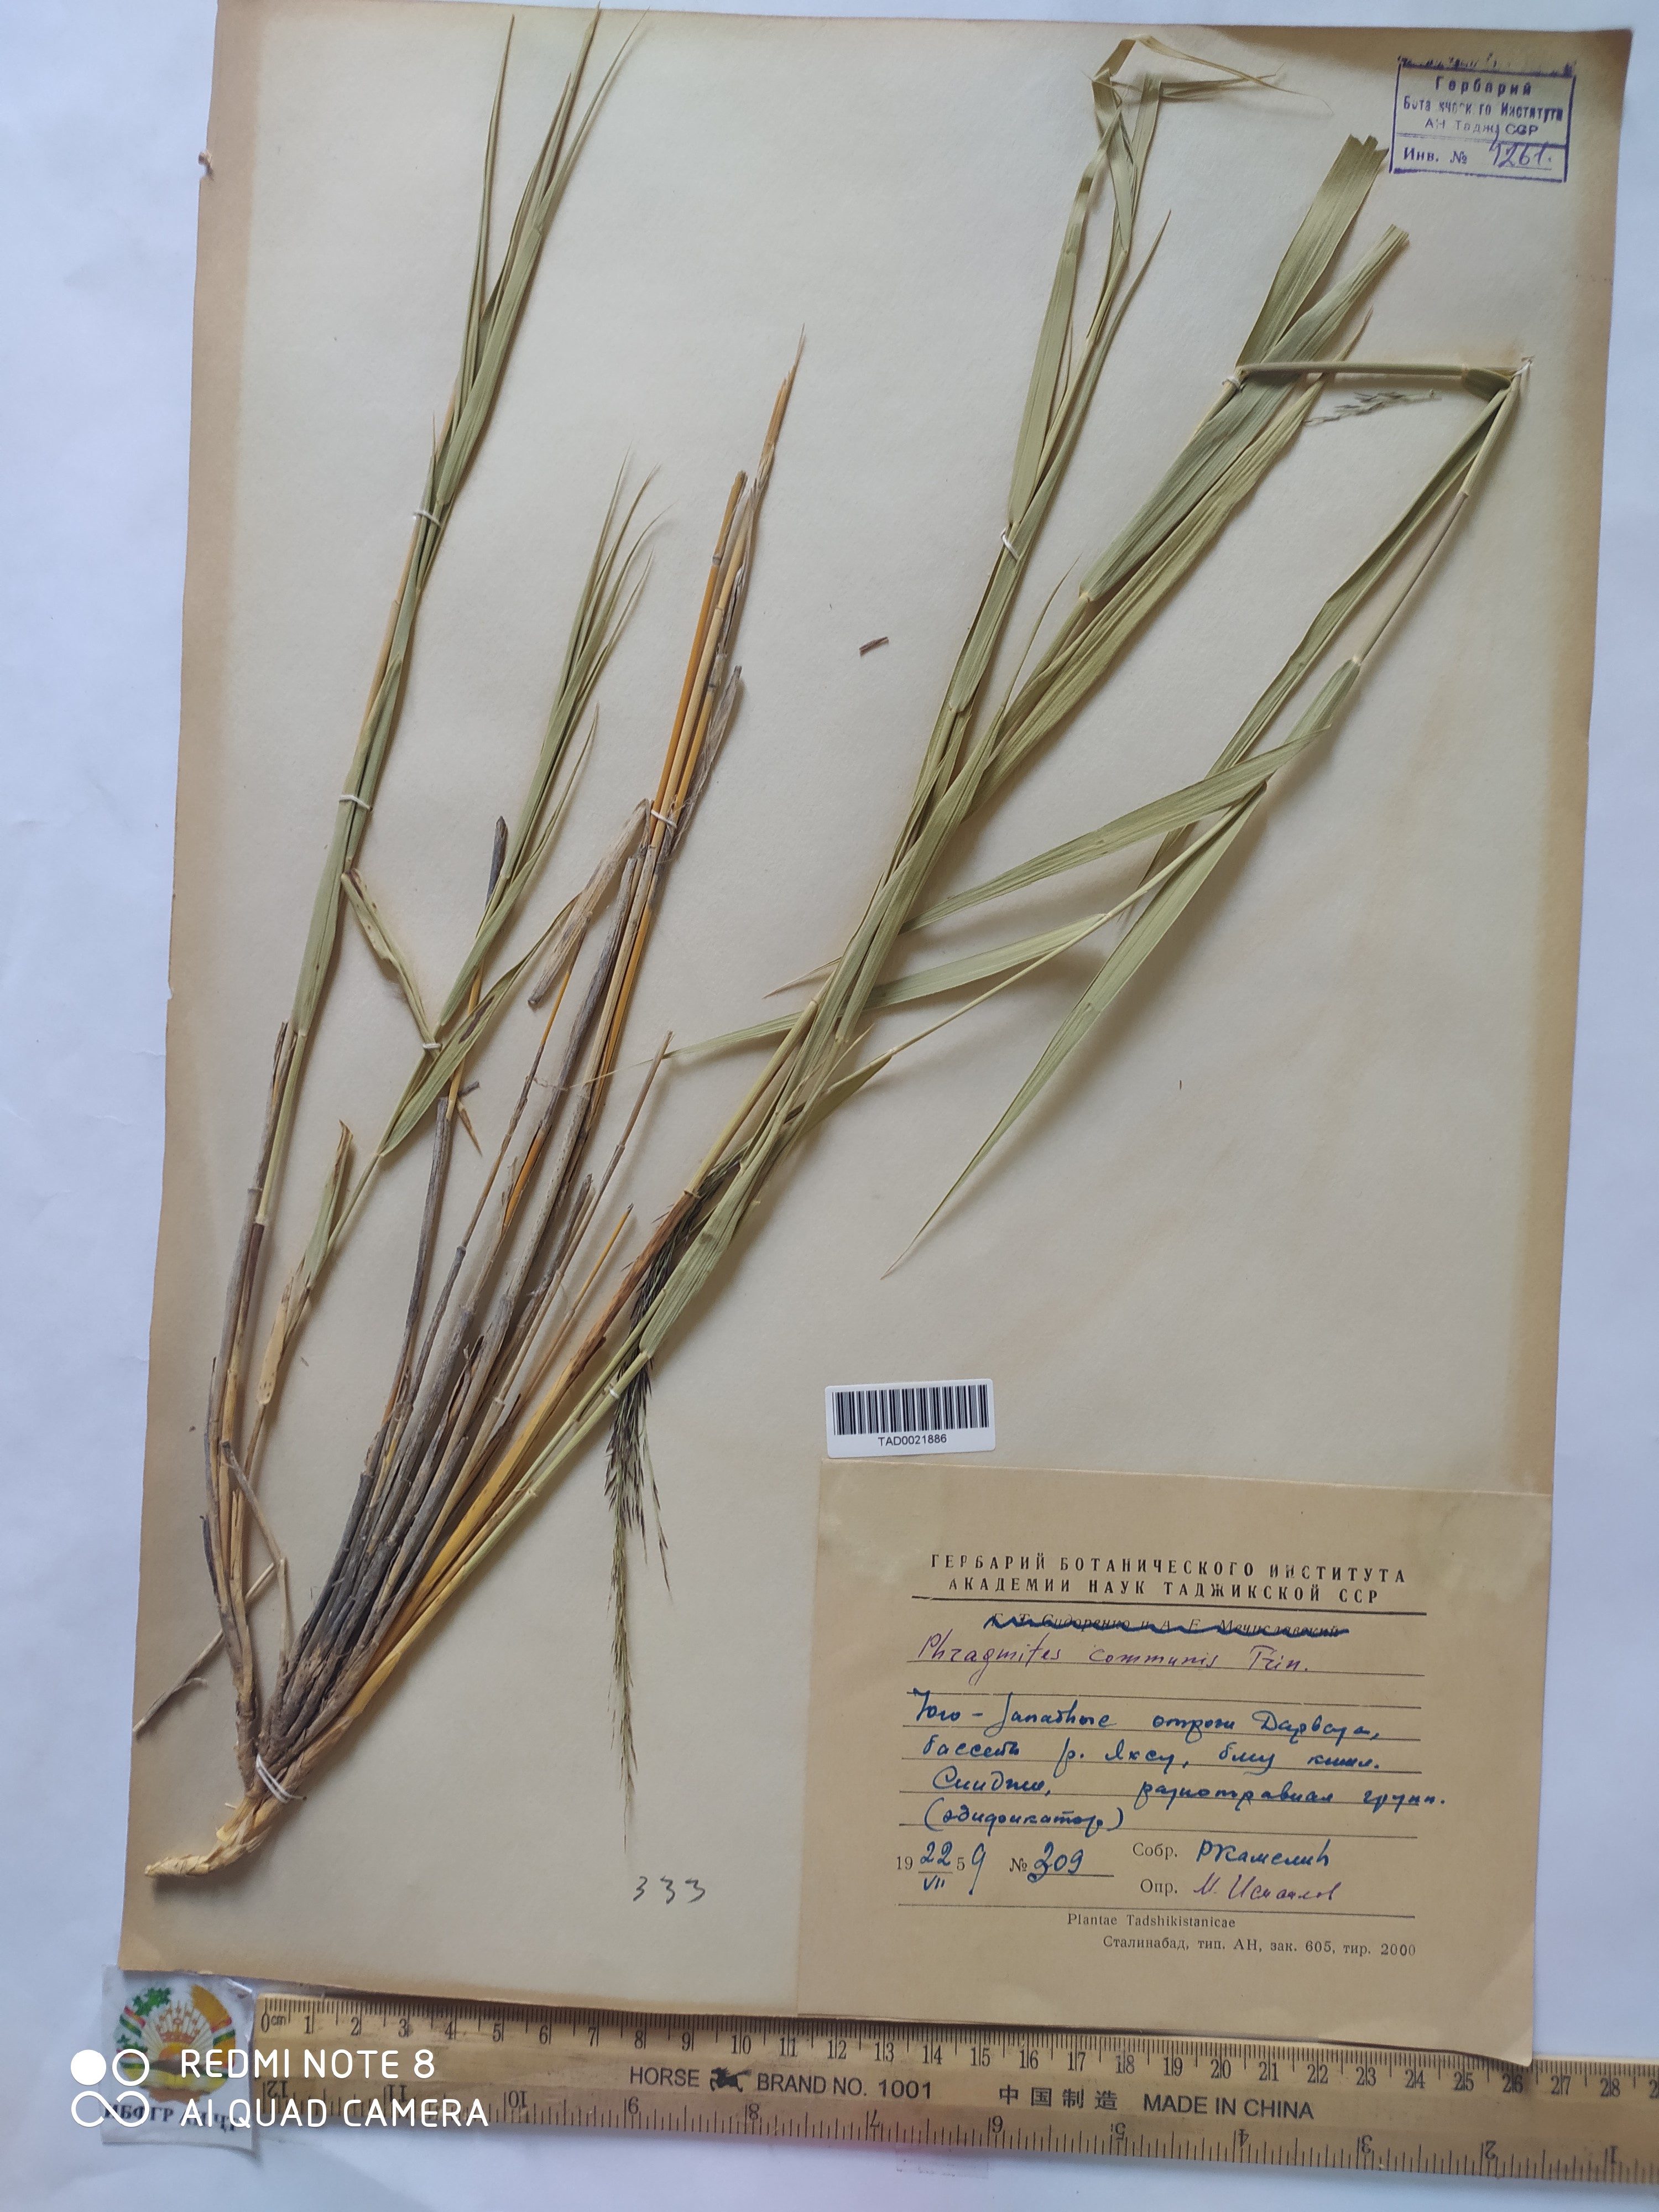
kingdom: Plantae
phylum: Tracheophyta
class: Liliopsida
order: Poales
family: Poaceae
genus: Phragmites
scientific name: Phragmites australis
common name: Common reed
